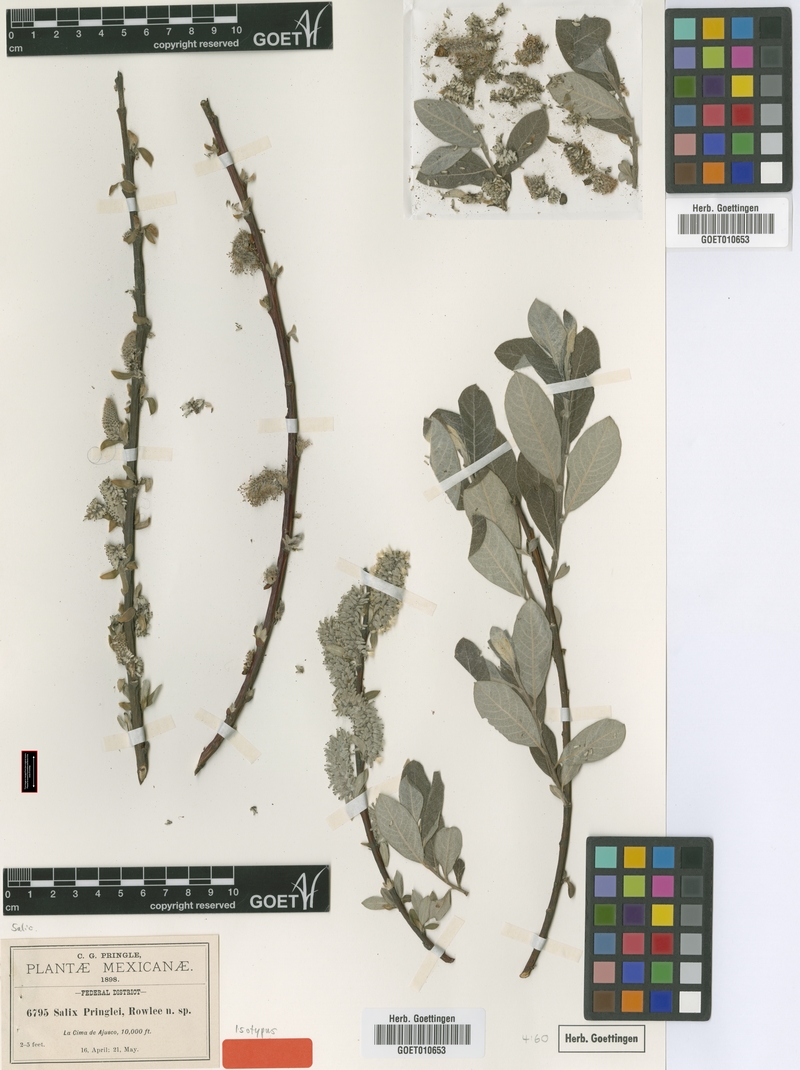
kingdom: Plantae
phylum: Tracheophyta
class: Magnoliopsida
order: Malpighiales
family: Salicaceae
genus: Salix
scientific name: Salix paradoxa
